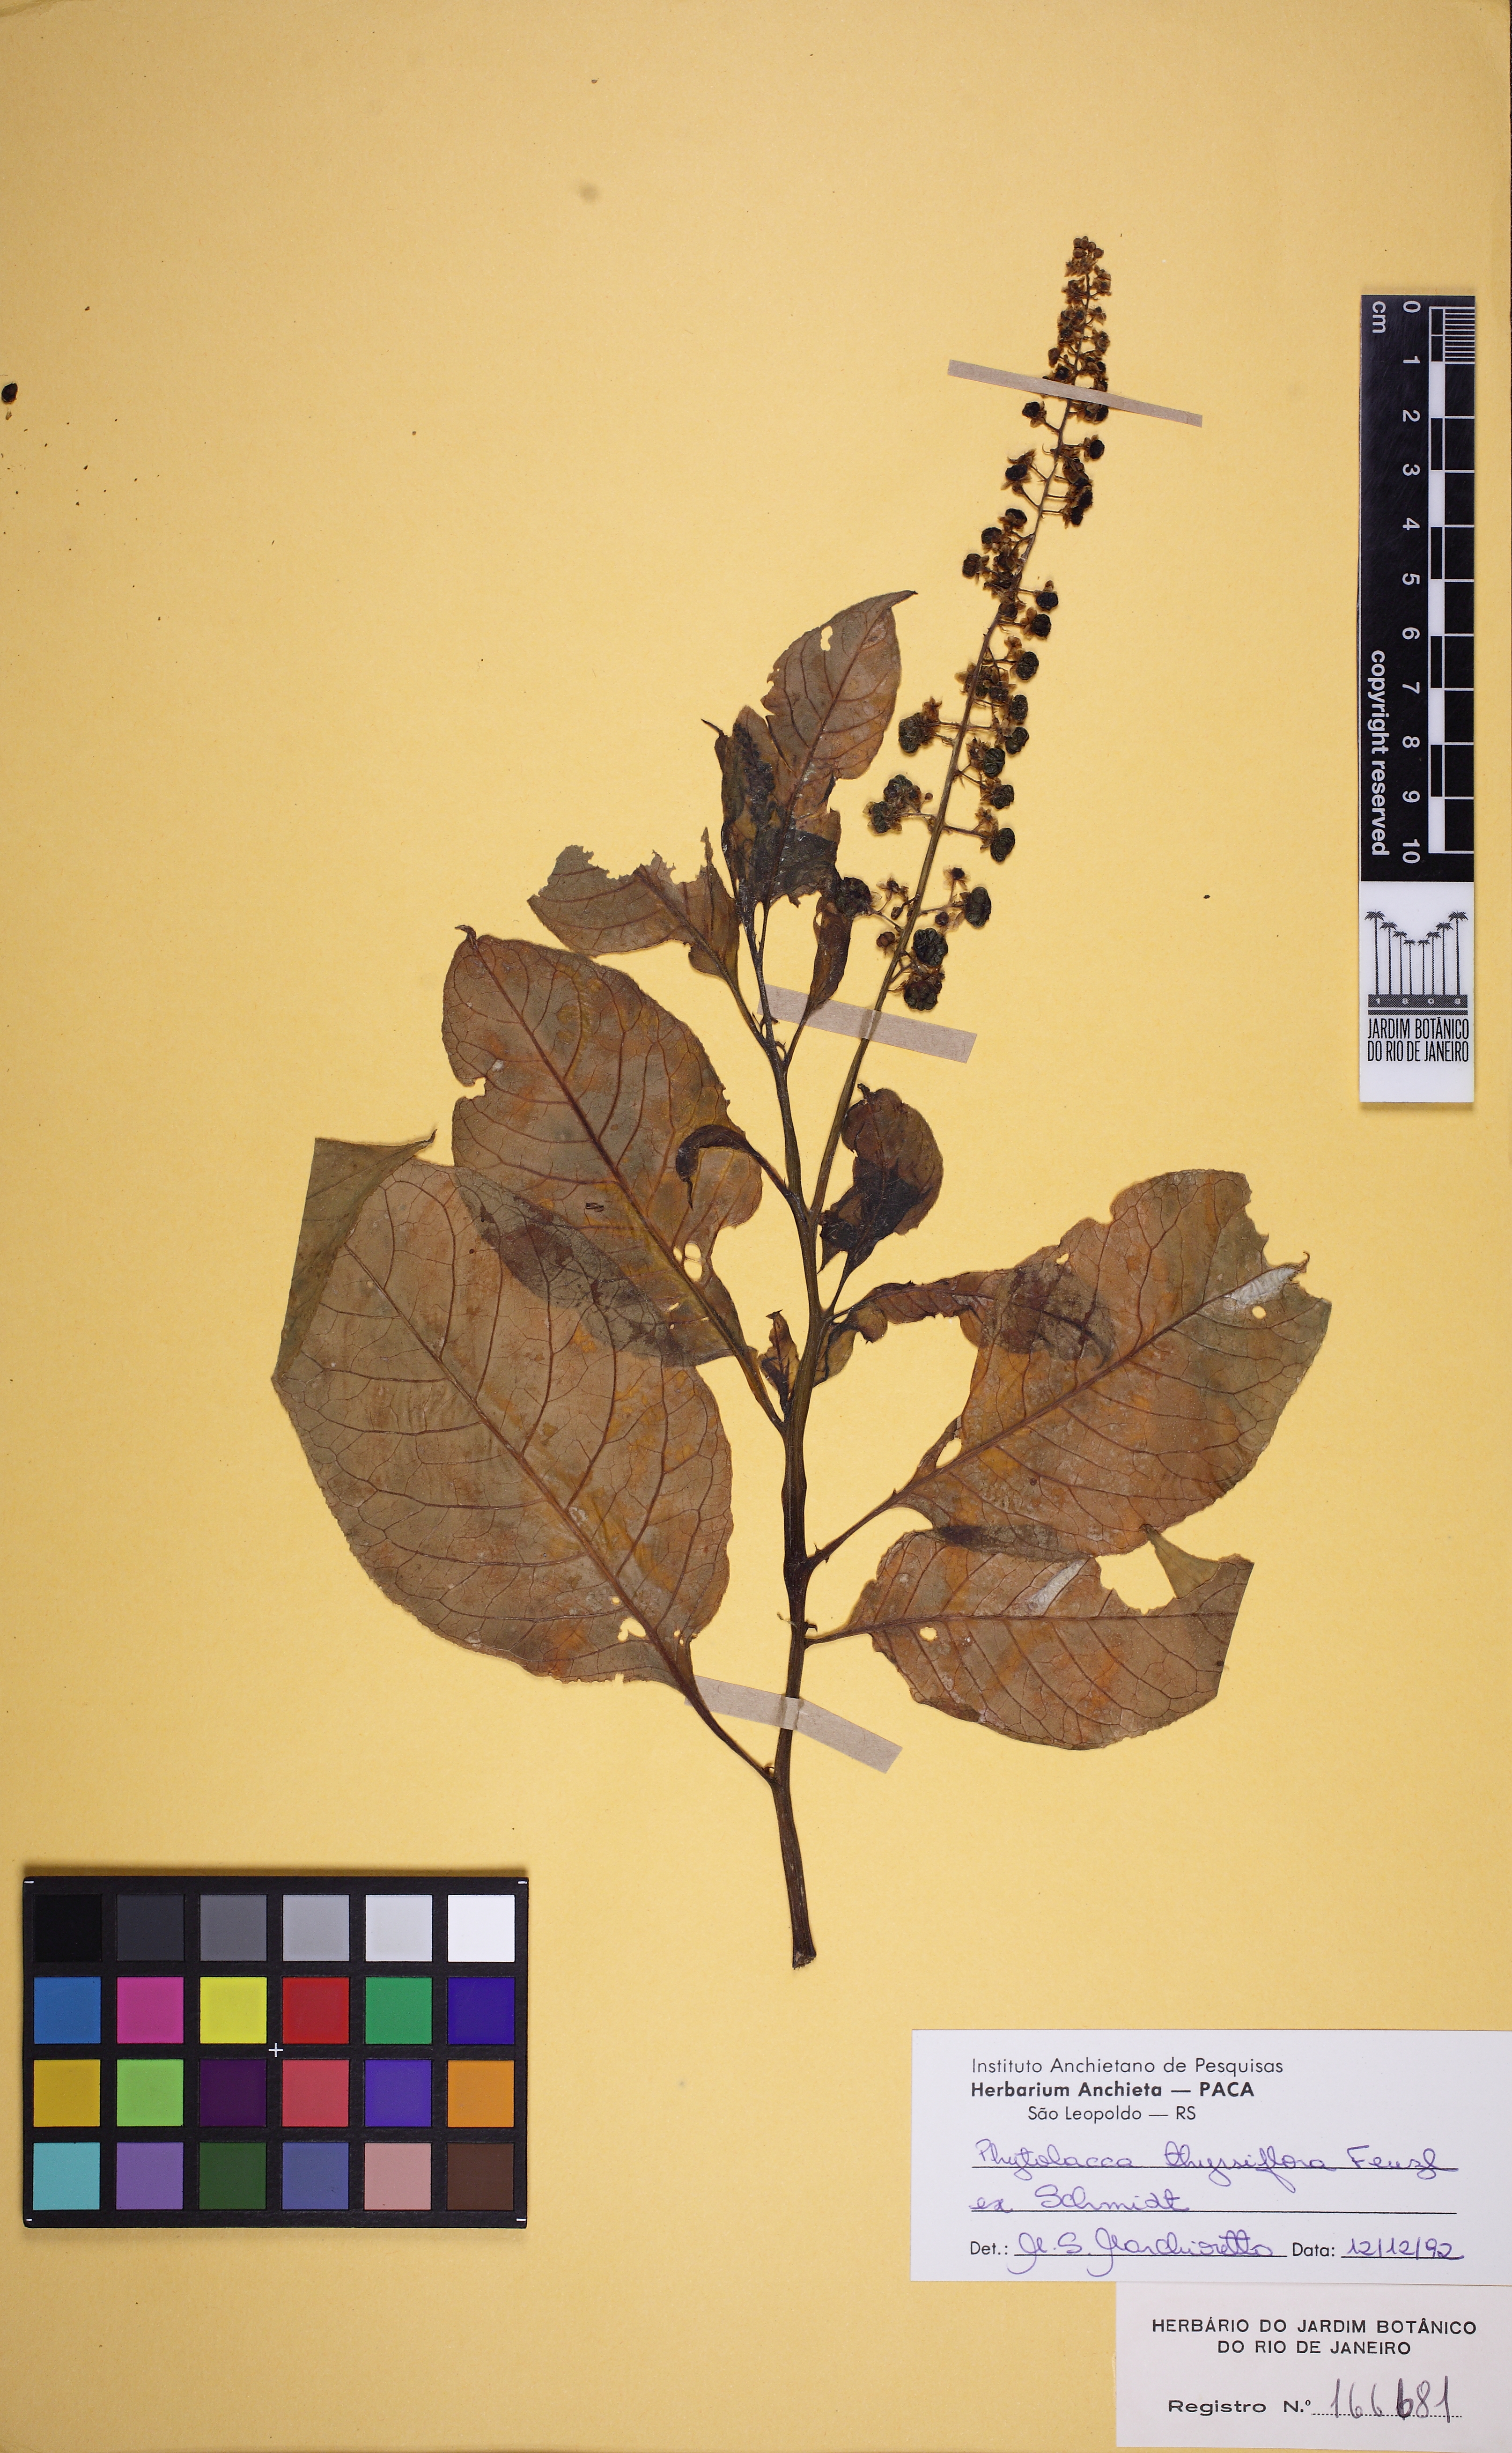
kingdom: Plantae
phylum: Tracheophyta
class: Magnoliopsida
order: Caryophyllales
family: Phytolaccaceae
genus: Phytolacca
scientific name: Phytolacca thyrsiflora
